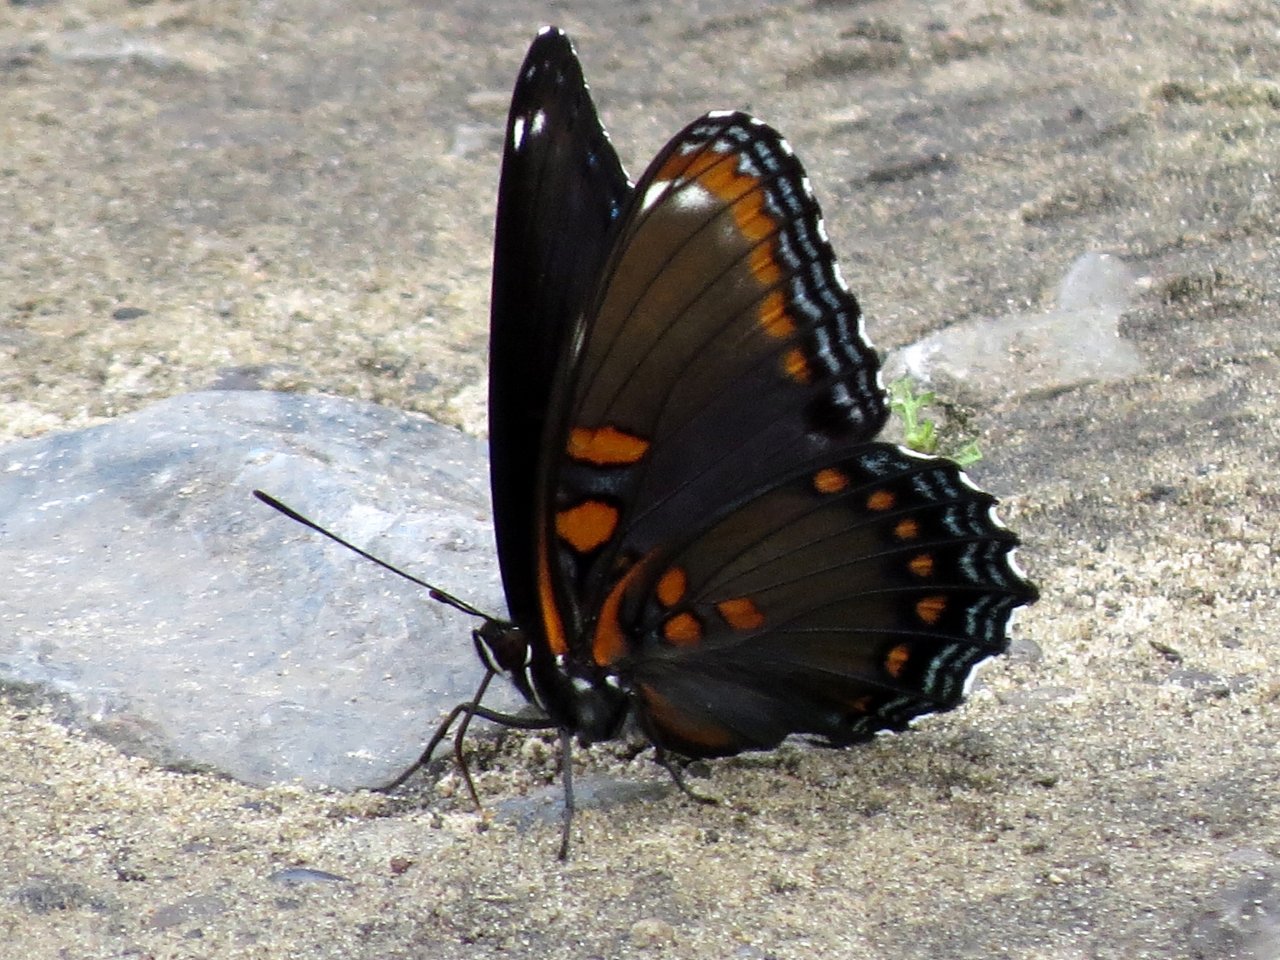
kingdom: Animalia
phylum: Arthropoda
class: Insecta
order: Lepidoptera
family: Nymphalidae
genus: Limenitis
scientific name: Limenitis astyanax
